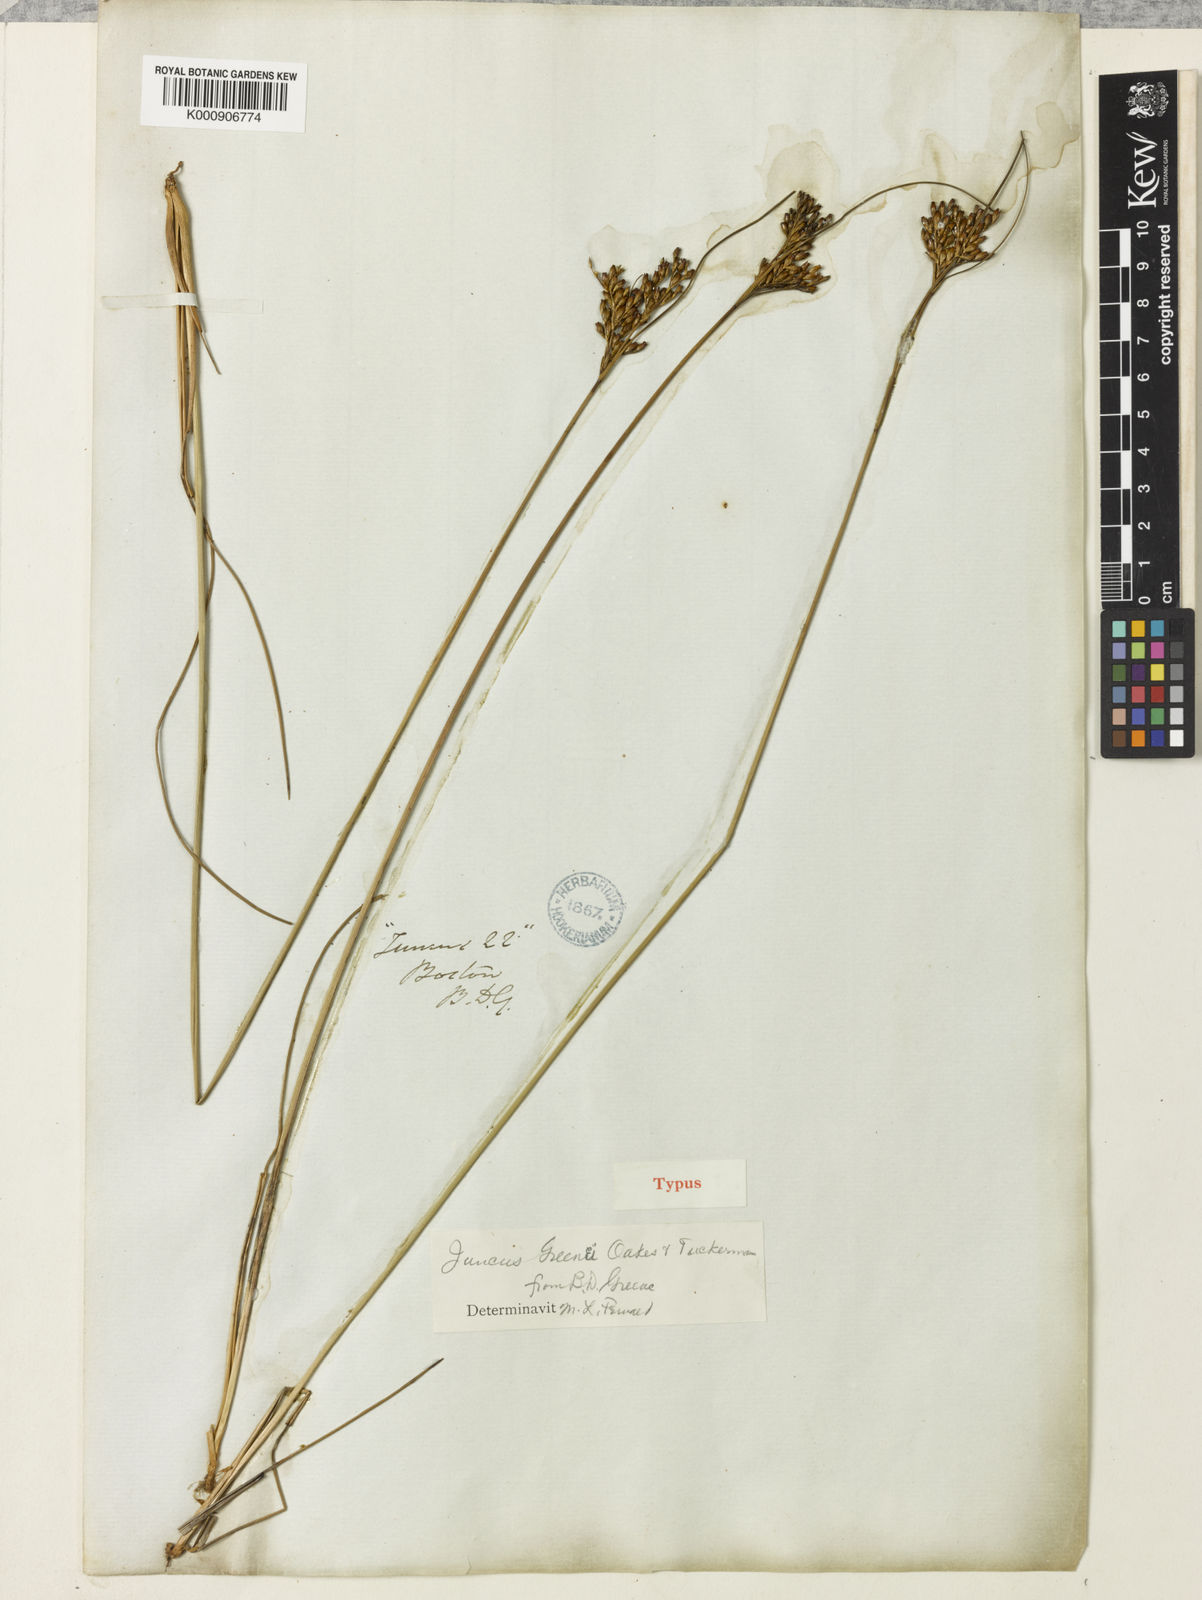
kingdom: Plantae
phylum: Tracheophyta
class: Liliopsida
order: Poales
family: Juncaceae
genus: Juncus
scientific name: Juncus greenei
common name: Greene's rush
